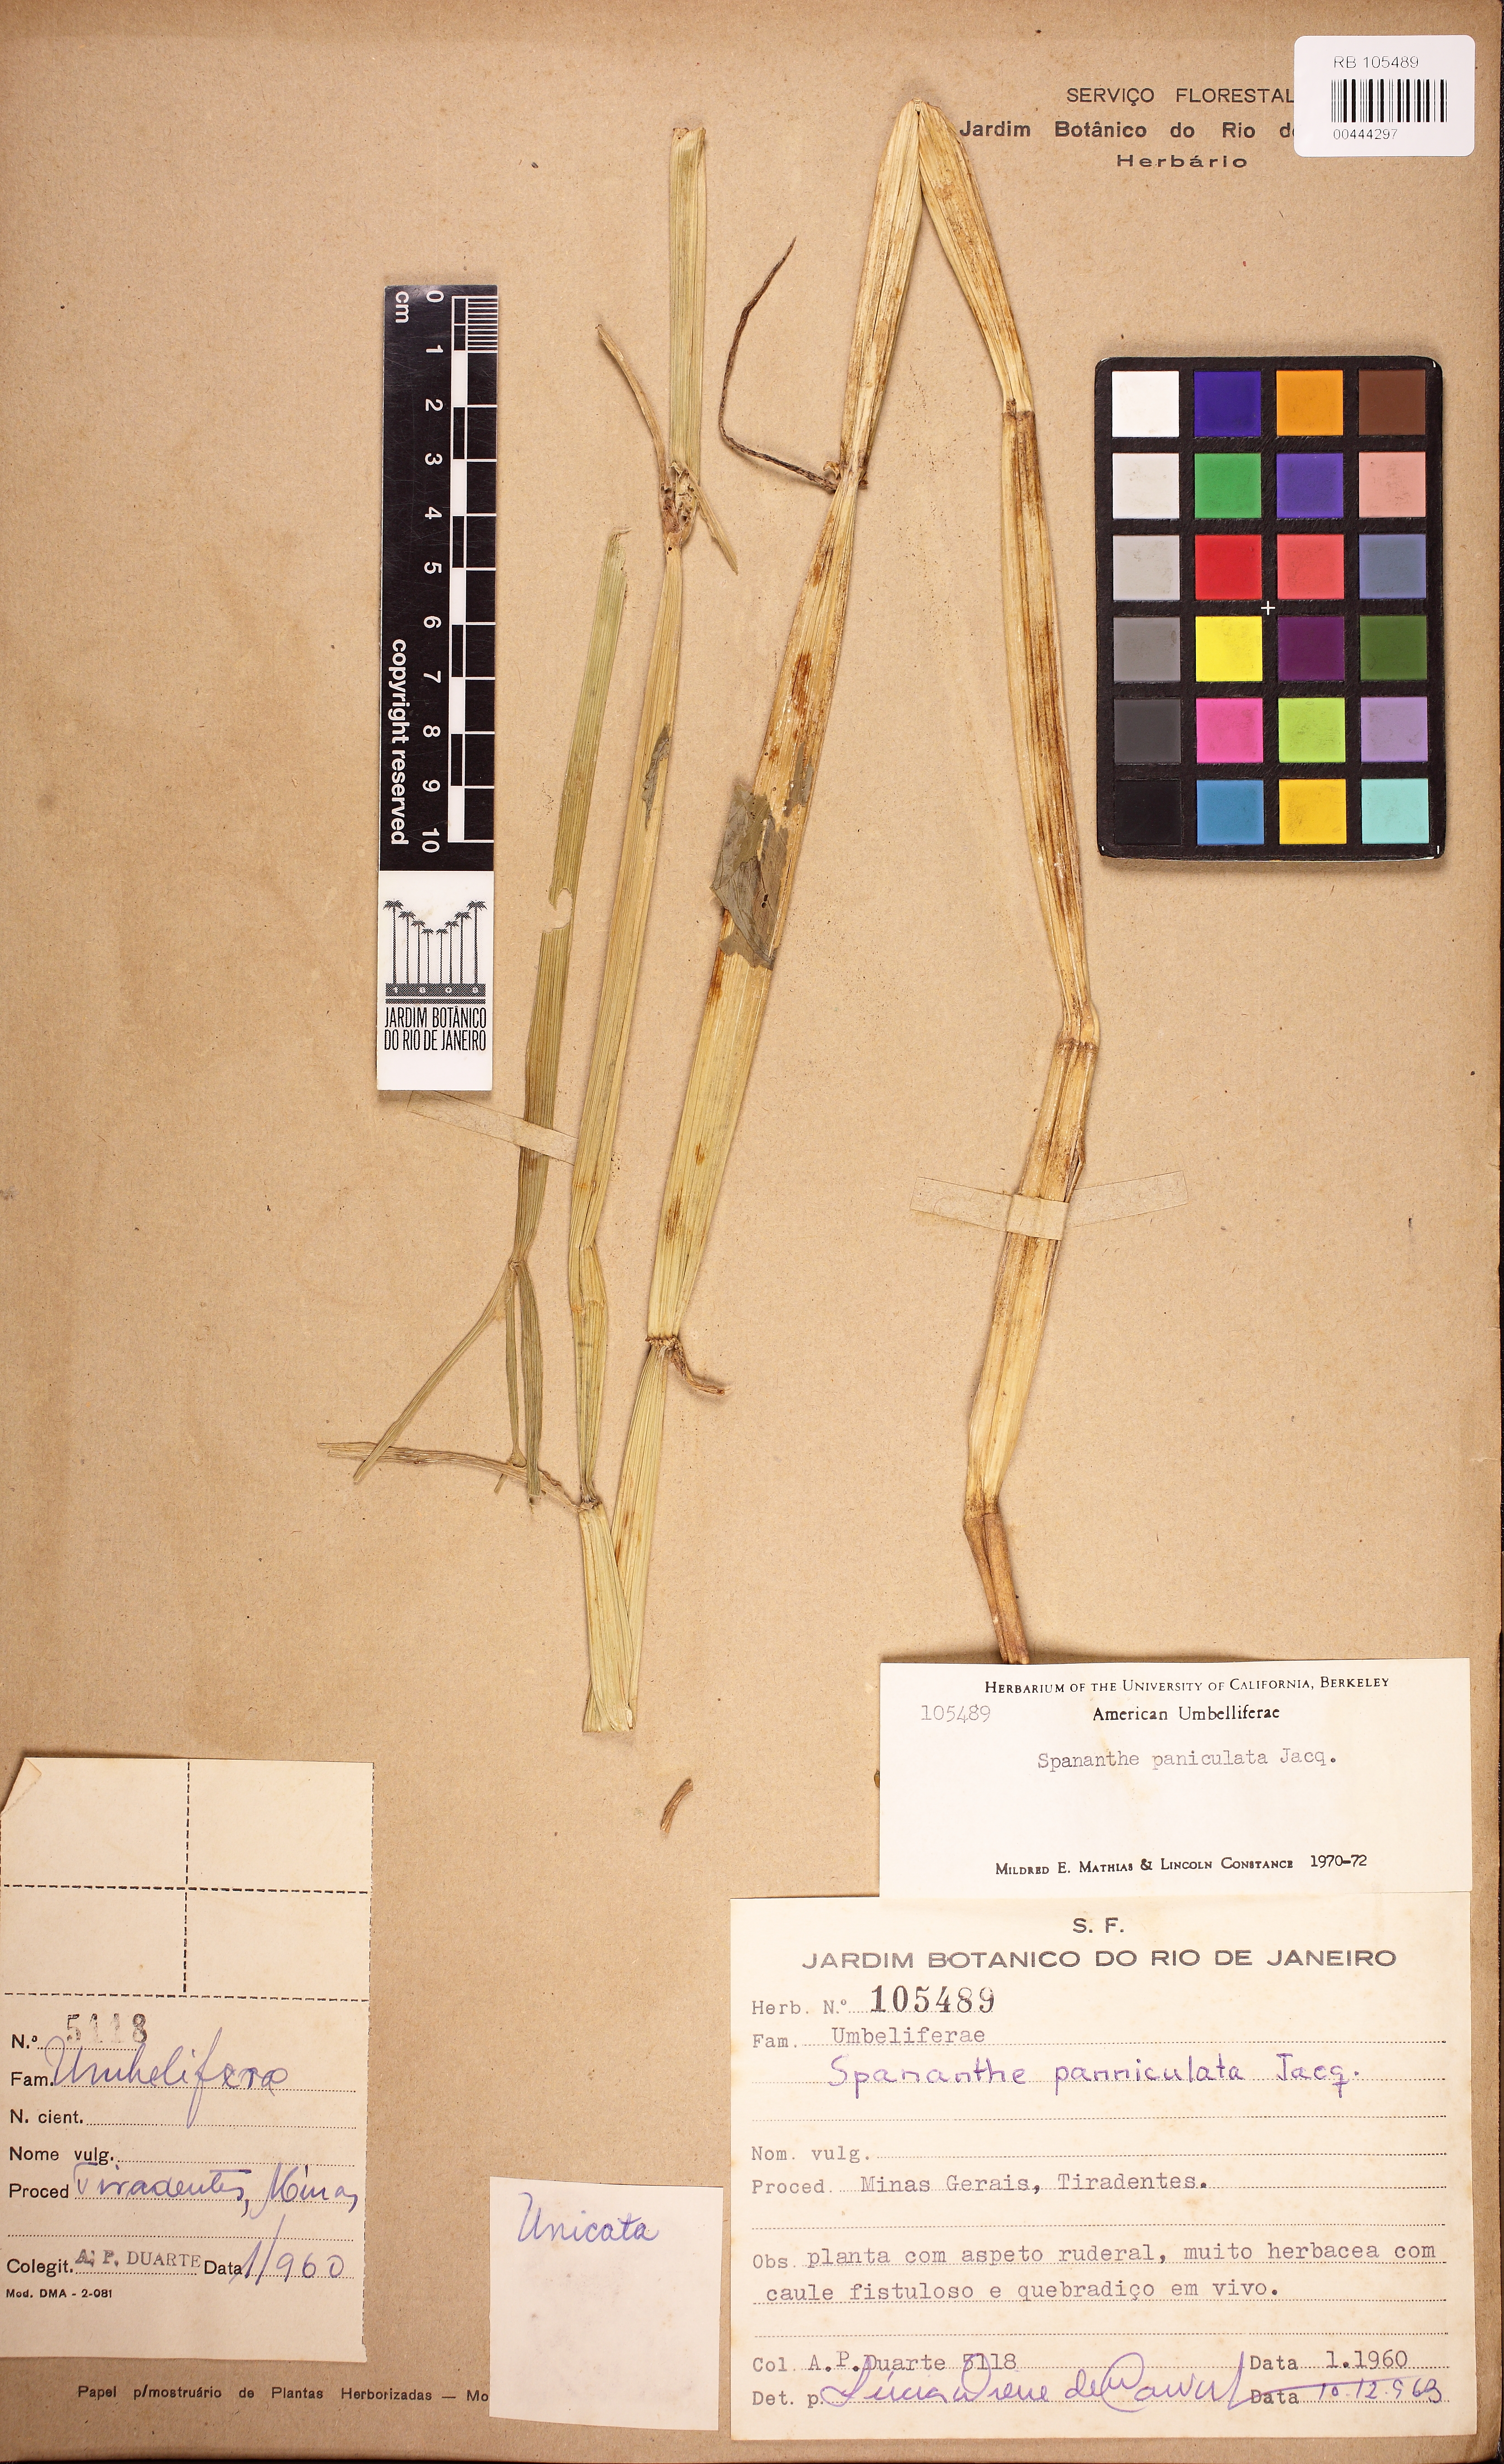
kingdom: Plantae
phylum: Tracheophyta
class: Magnoliopsida
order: Apiales
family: Apiaceae
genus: Spananthe
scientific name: Spananthe paniculata
